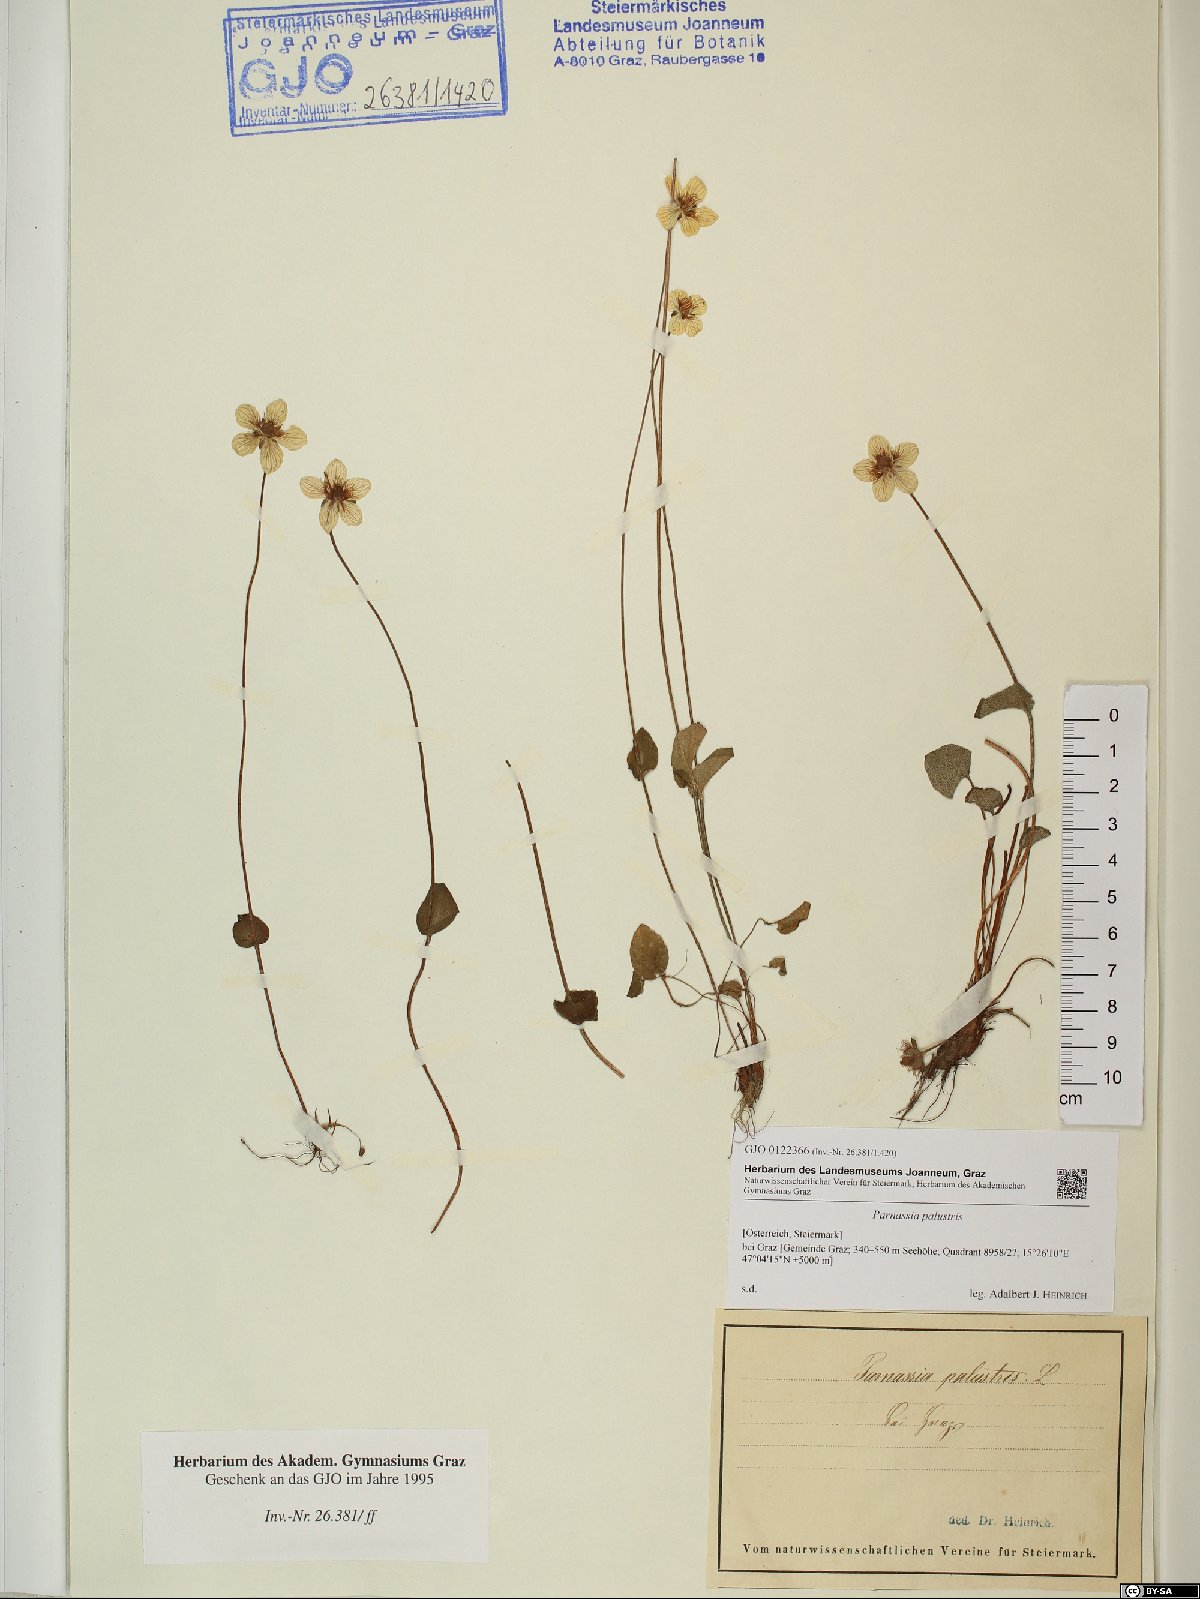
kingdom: Plantae
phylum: Tracheophyta
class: Magnoliopsida
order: Celastrales
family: Parnassiaceae
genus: Parnassia
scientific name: Parnassia palustris
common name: Grass-of-parnassus
